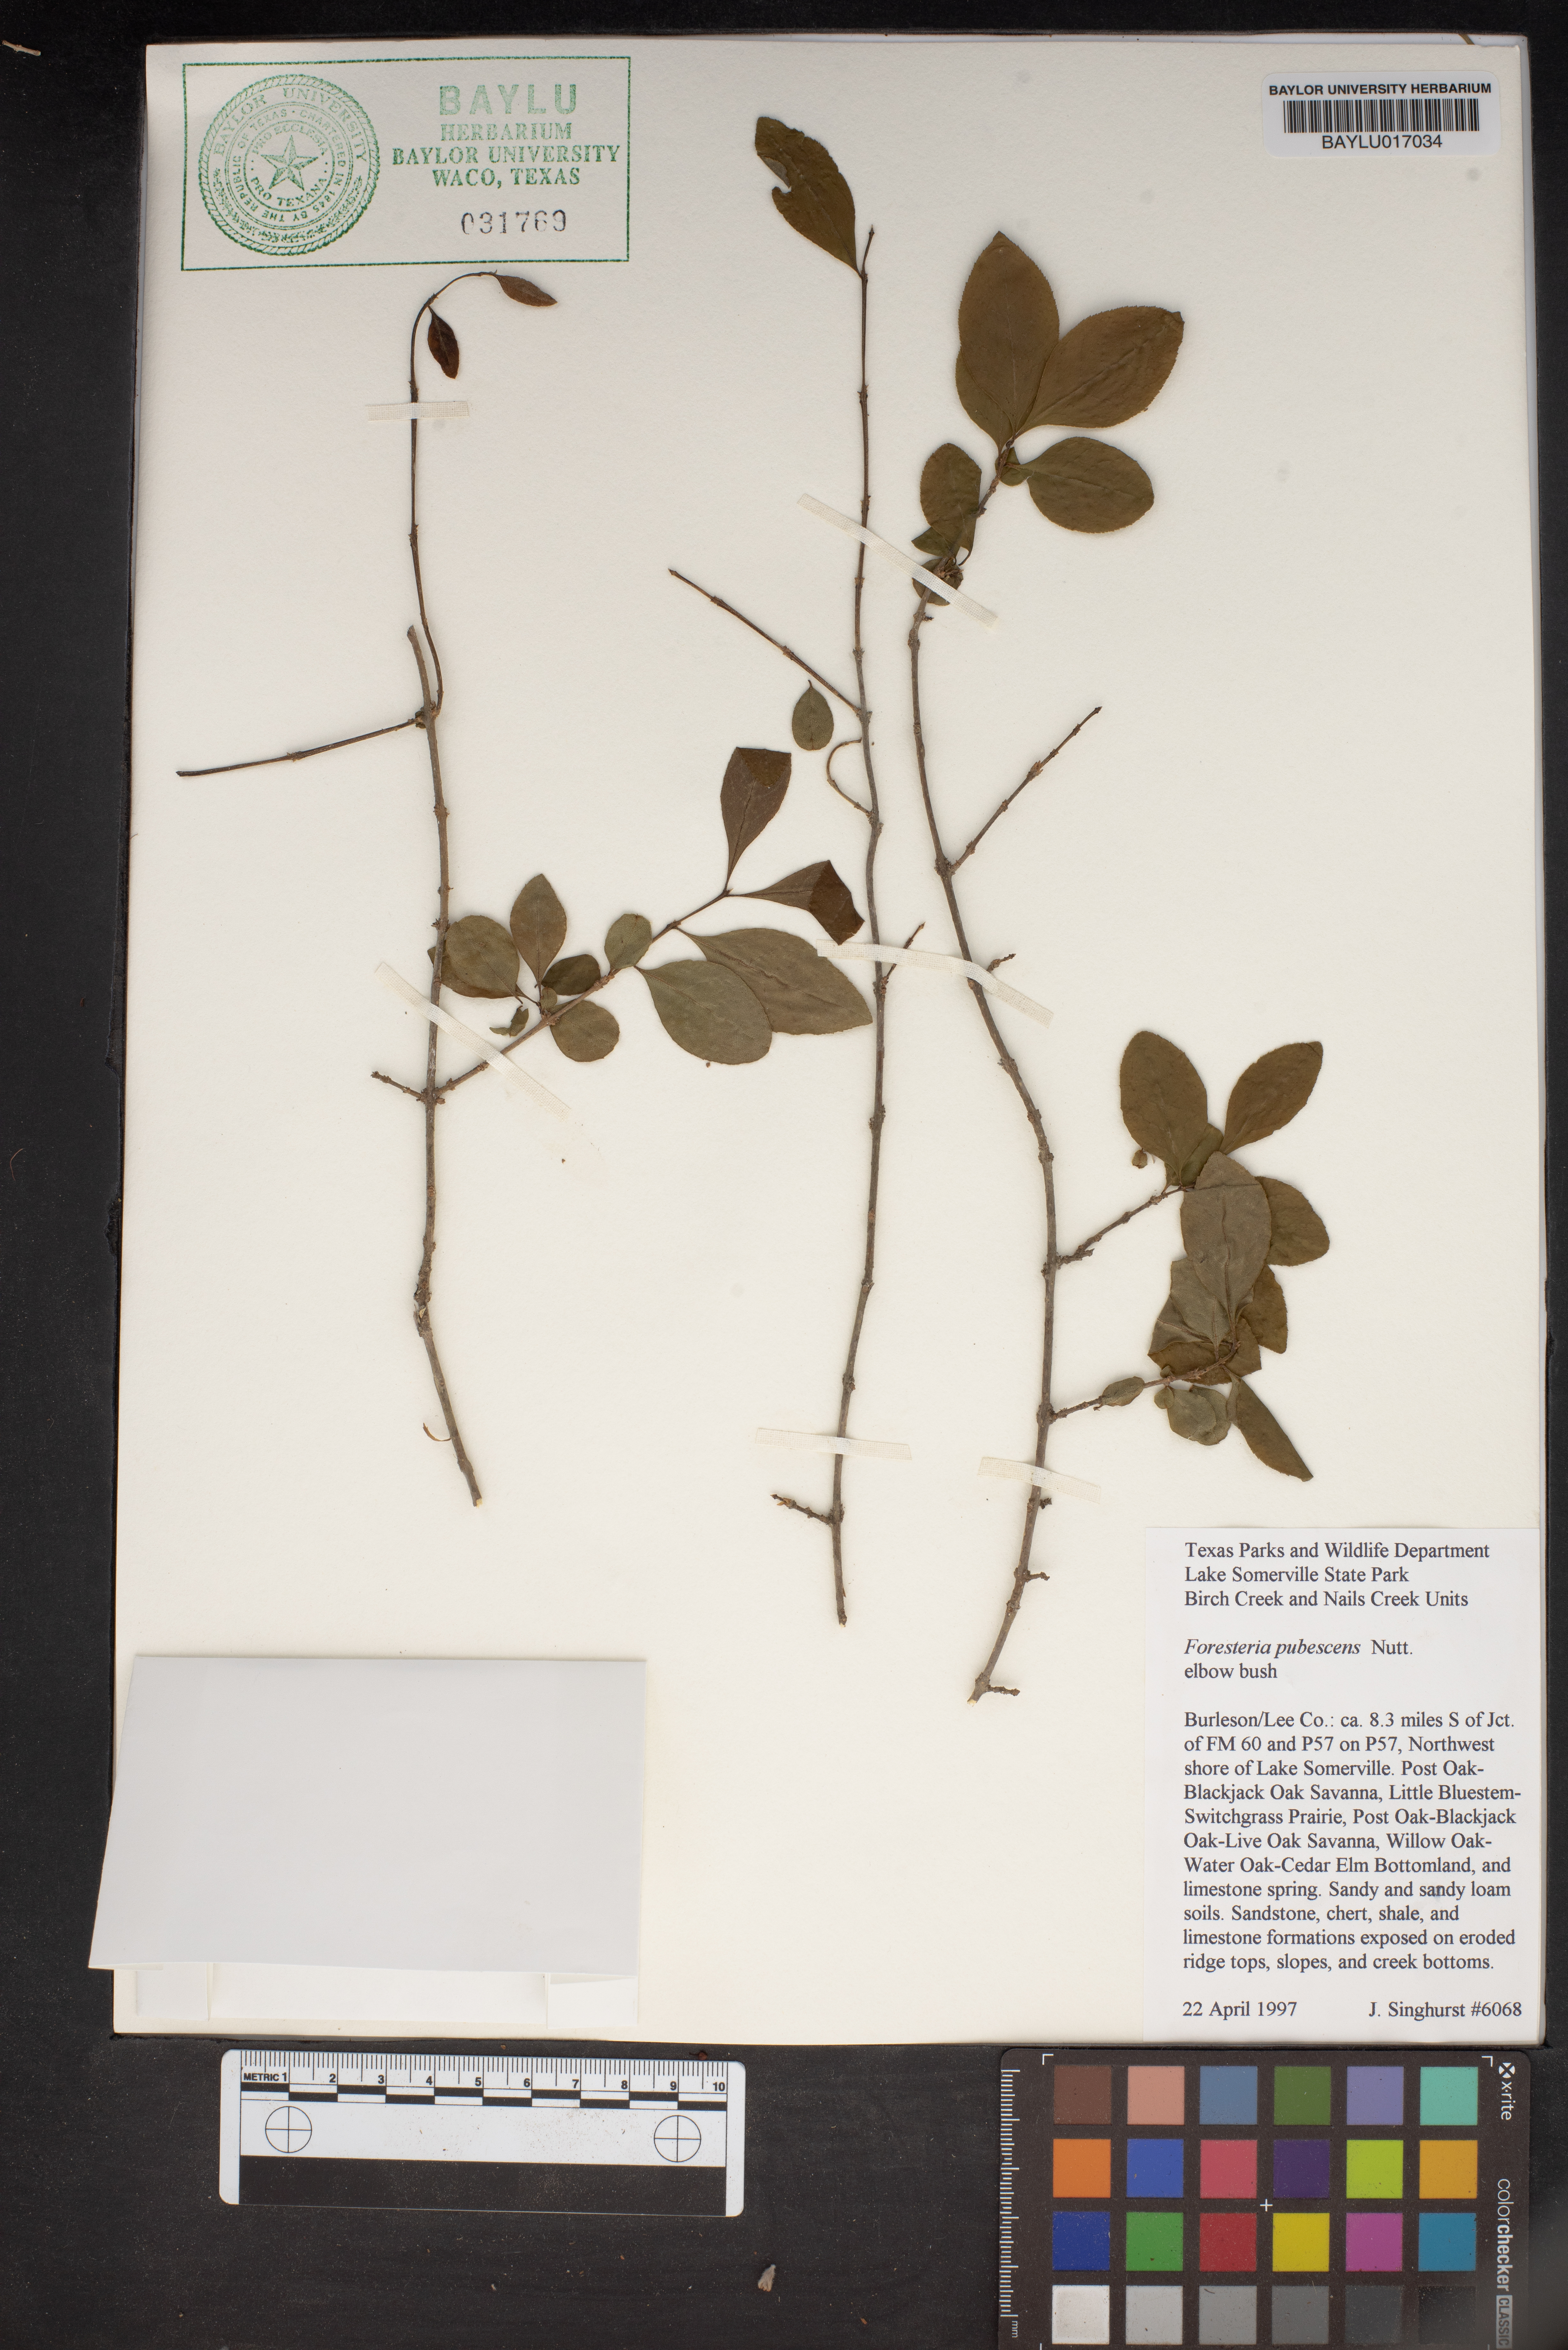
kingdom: Plantae
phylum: Tracheophyta
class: Magnoliopsida
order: Lamiales
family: Oleaceae
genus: Forestiera
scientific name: Forestiera pubescens
